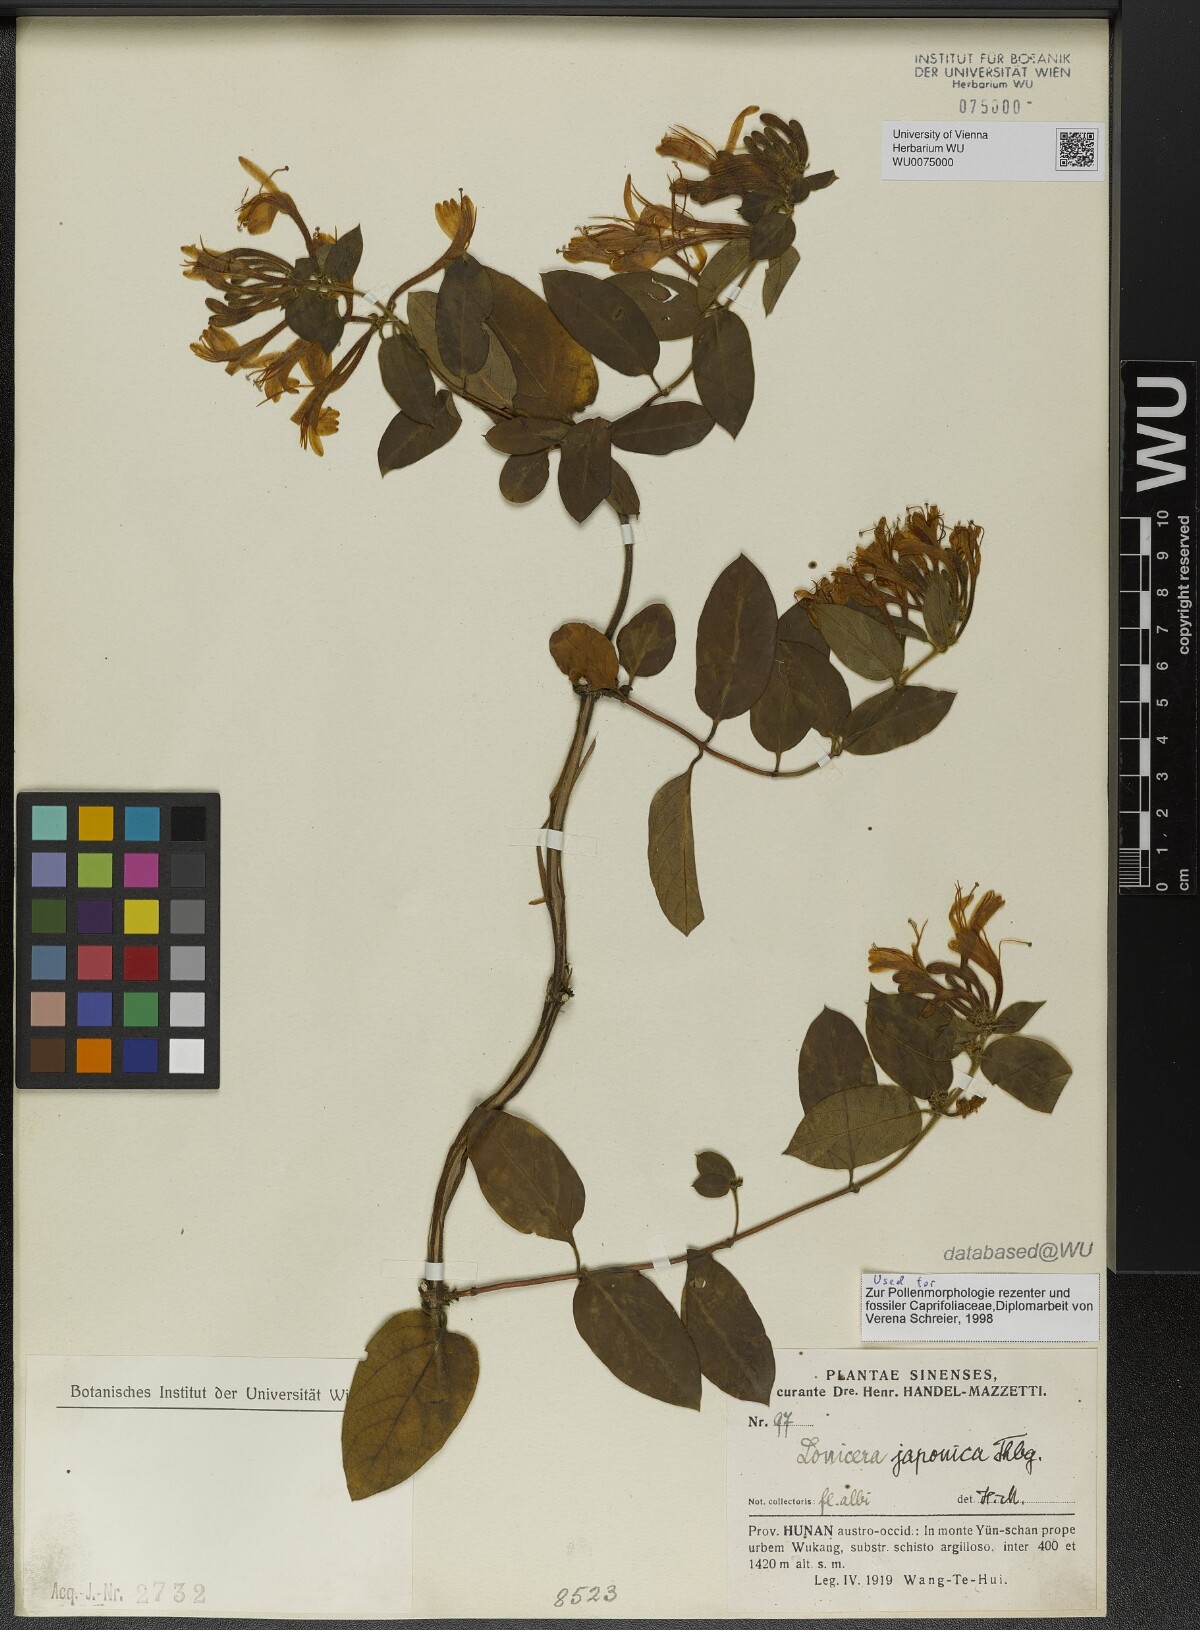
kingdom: Plantae
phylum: Tracheophyta
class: Magnoliopsida
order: Dipsacales
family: Caprifoliaceae
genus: Lonicera
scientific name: Lonicera japonica
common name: Japanese honeysuckle
